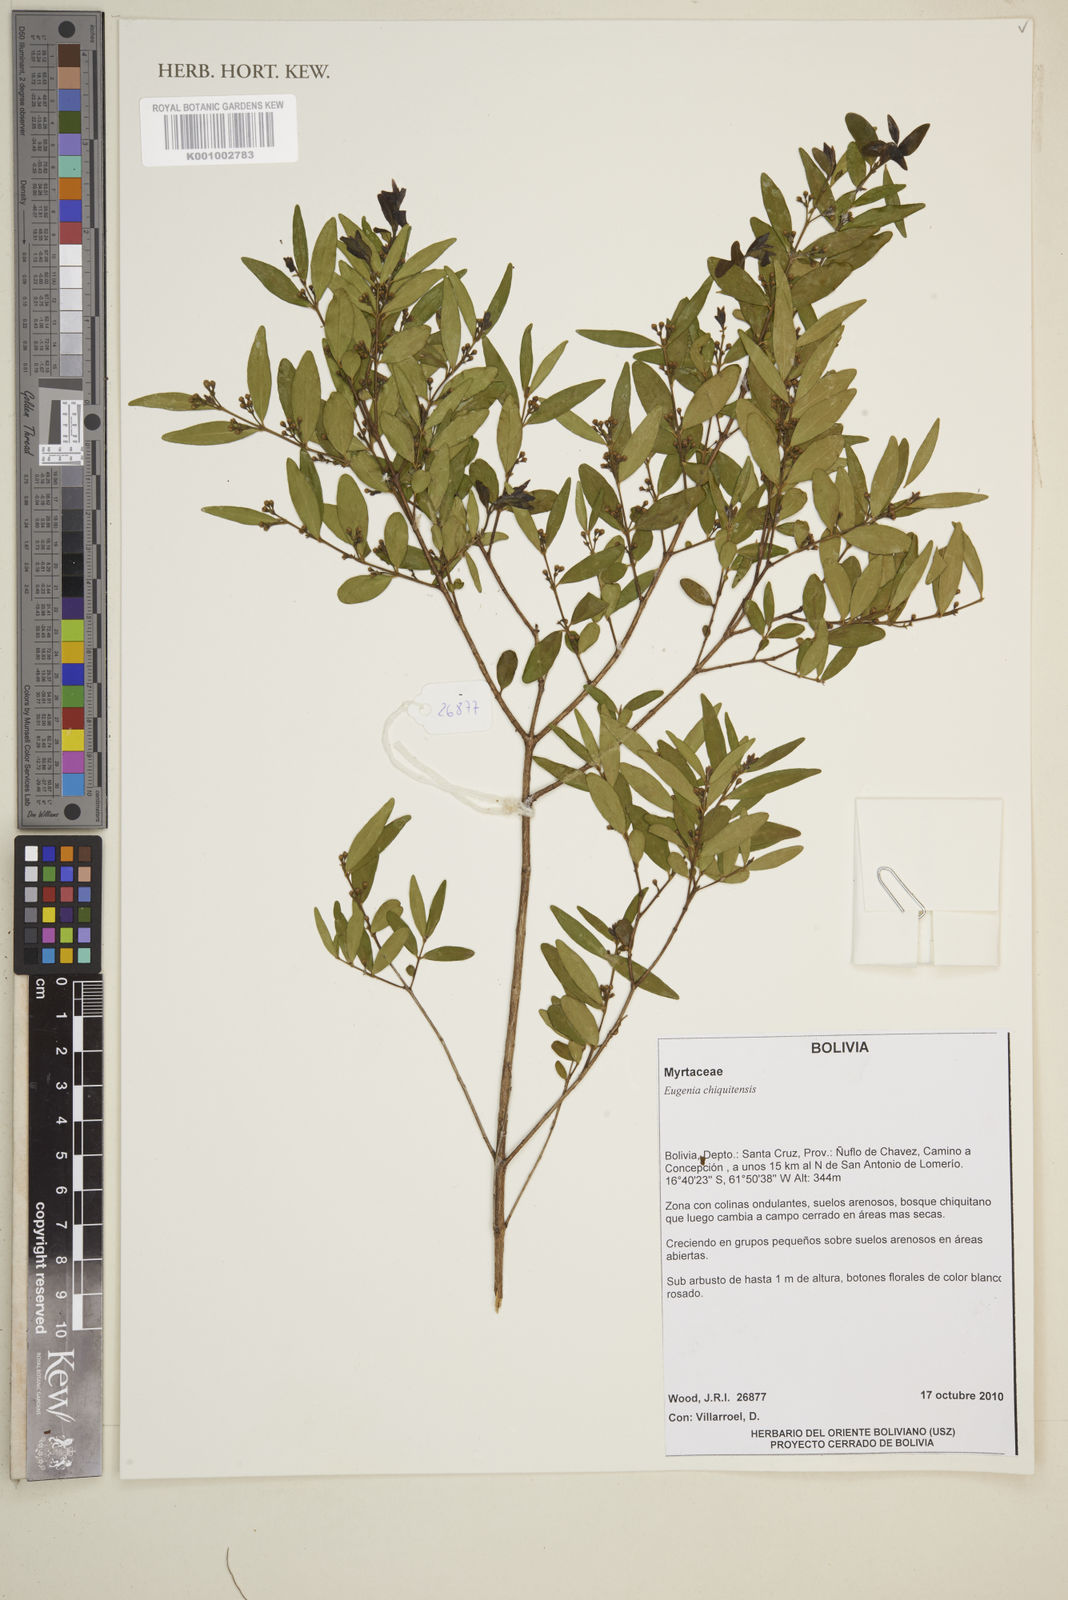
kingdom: Plantae
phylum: Tracheophyta
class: Magnoliopsida
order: Myrtales
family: Myrtaceae
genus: Eugenia
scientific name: Eugenia chiquitensis
